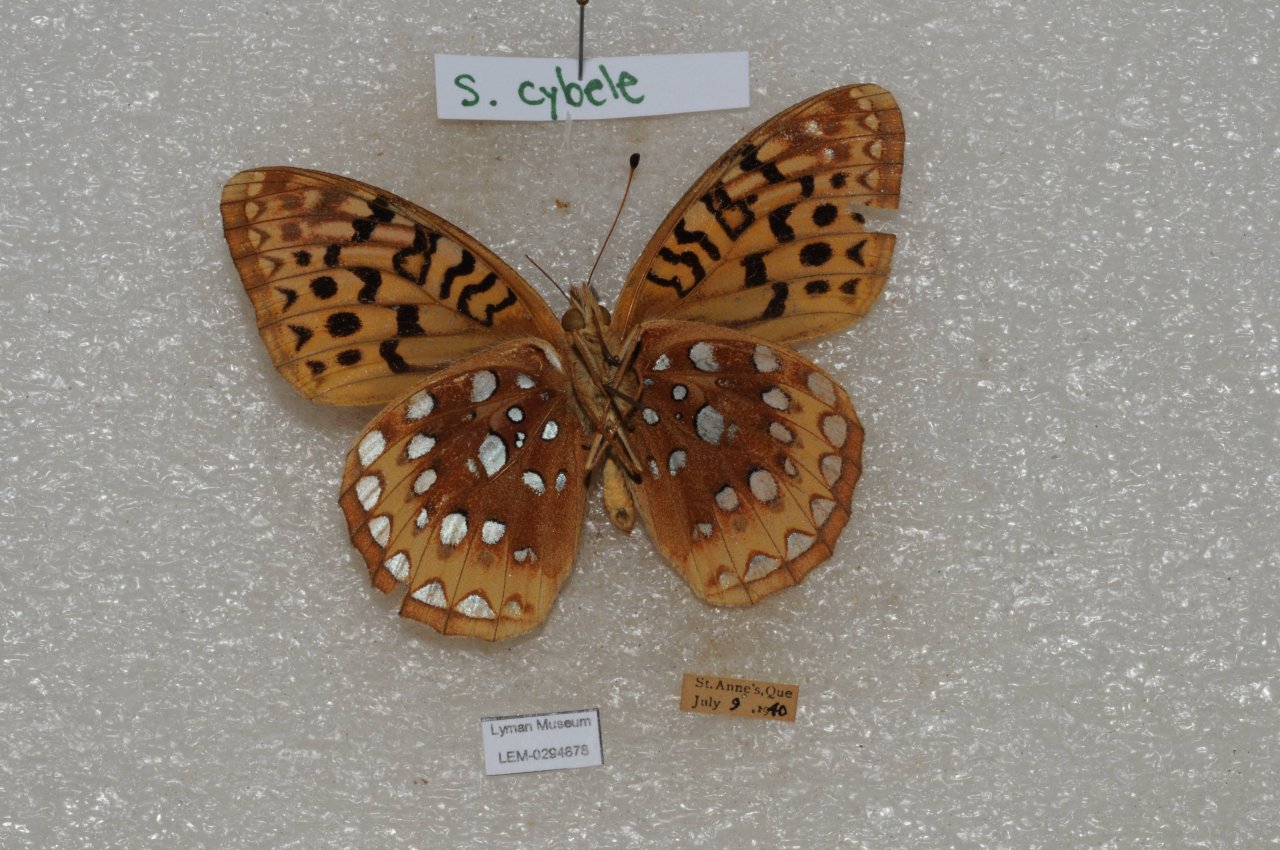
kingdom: Animalia
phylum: Arthropoda
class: Insecta
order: Lepidoptera
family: Nymphalidae
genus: Speyeria
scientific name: Speyeria cybele
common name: Great Spangled Fritillary
